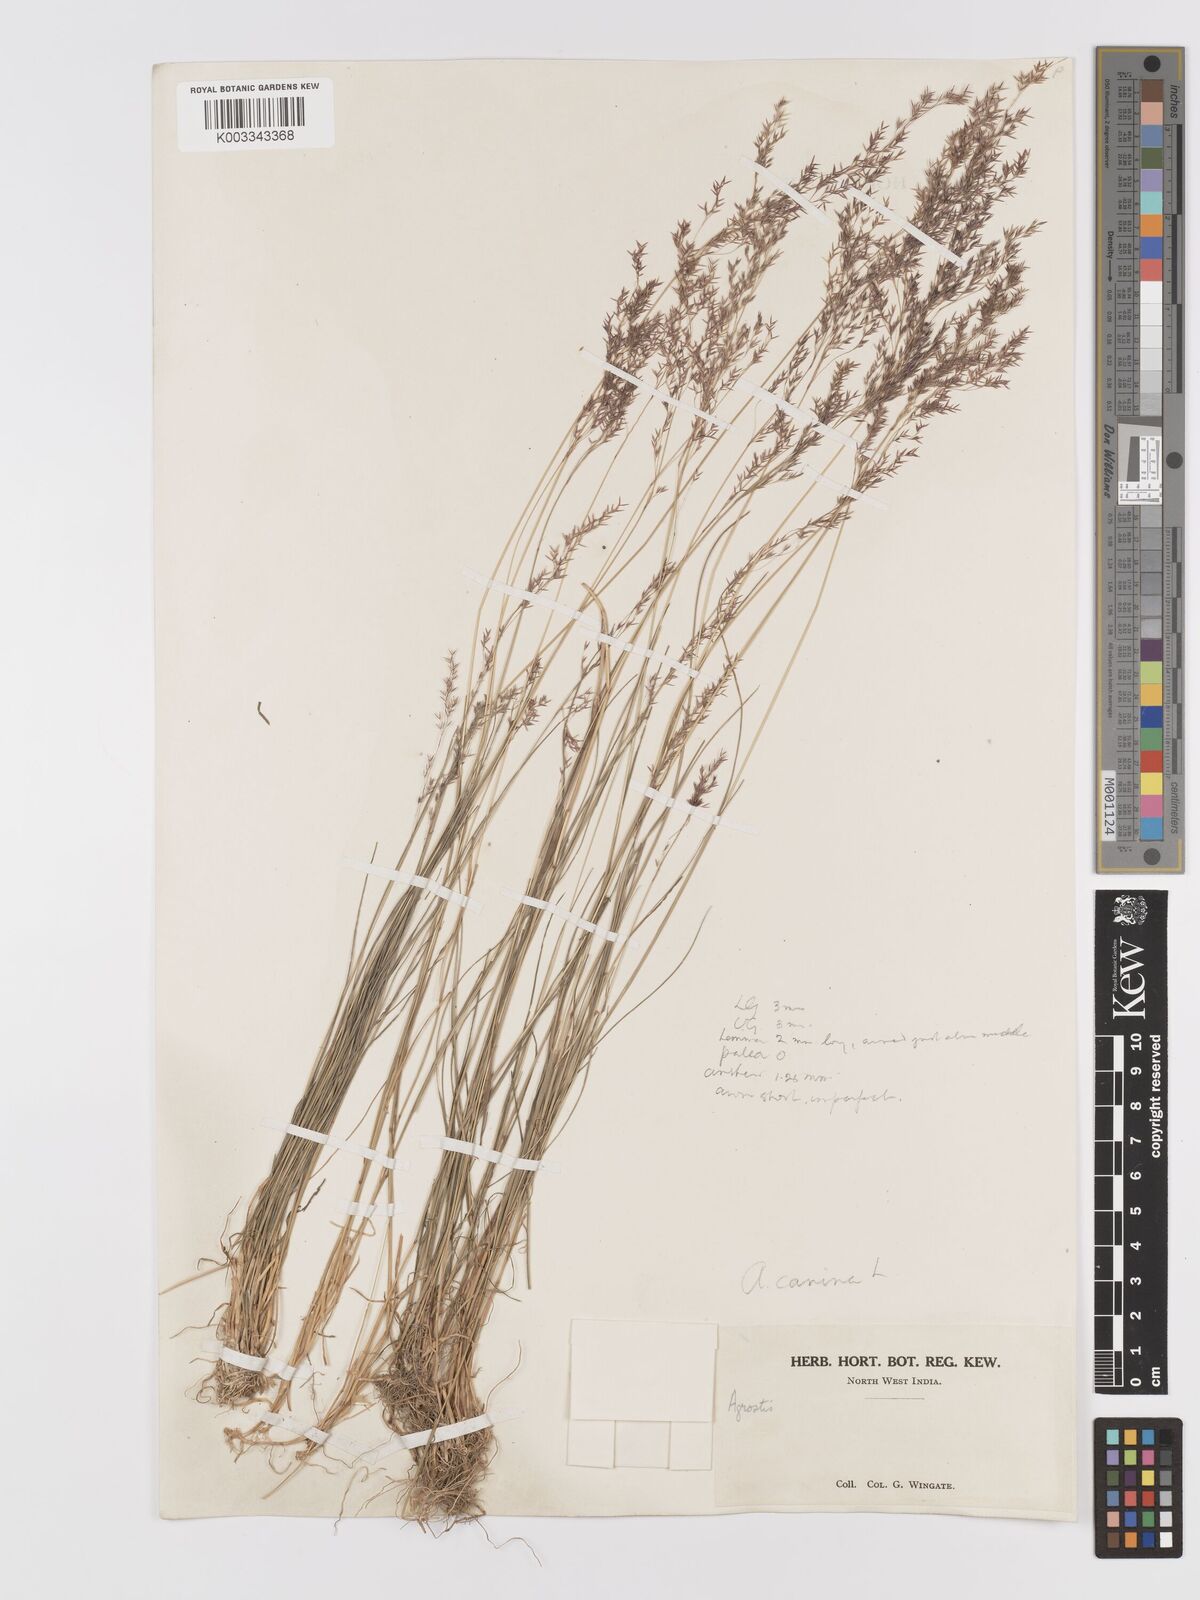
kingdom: Plantae
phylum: Tracheophyta
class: Liliopsida
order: Poales
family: Poaceae
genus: Agrostis
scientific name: Agrostis
